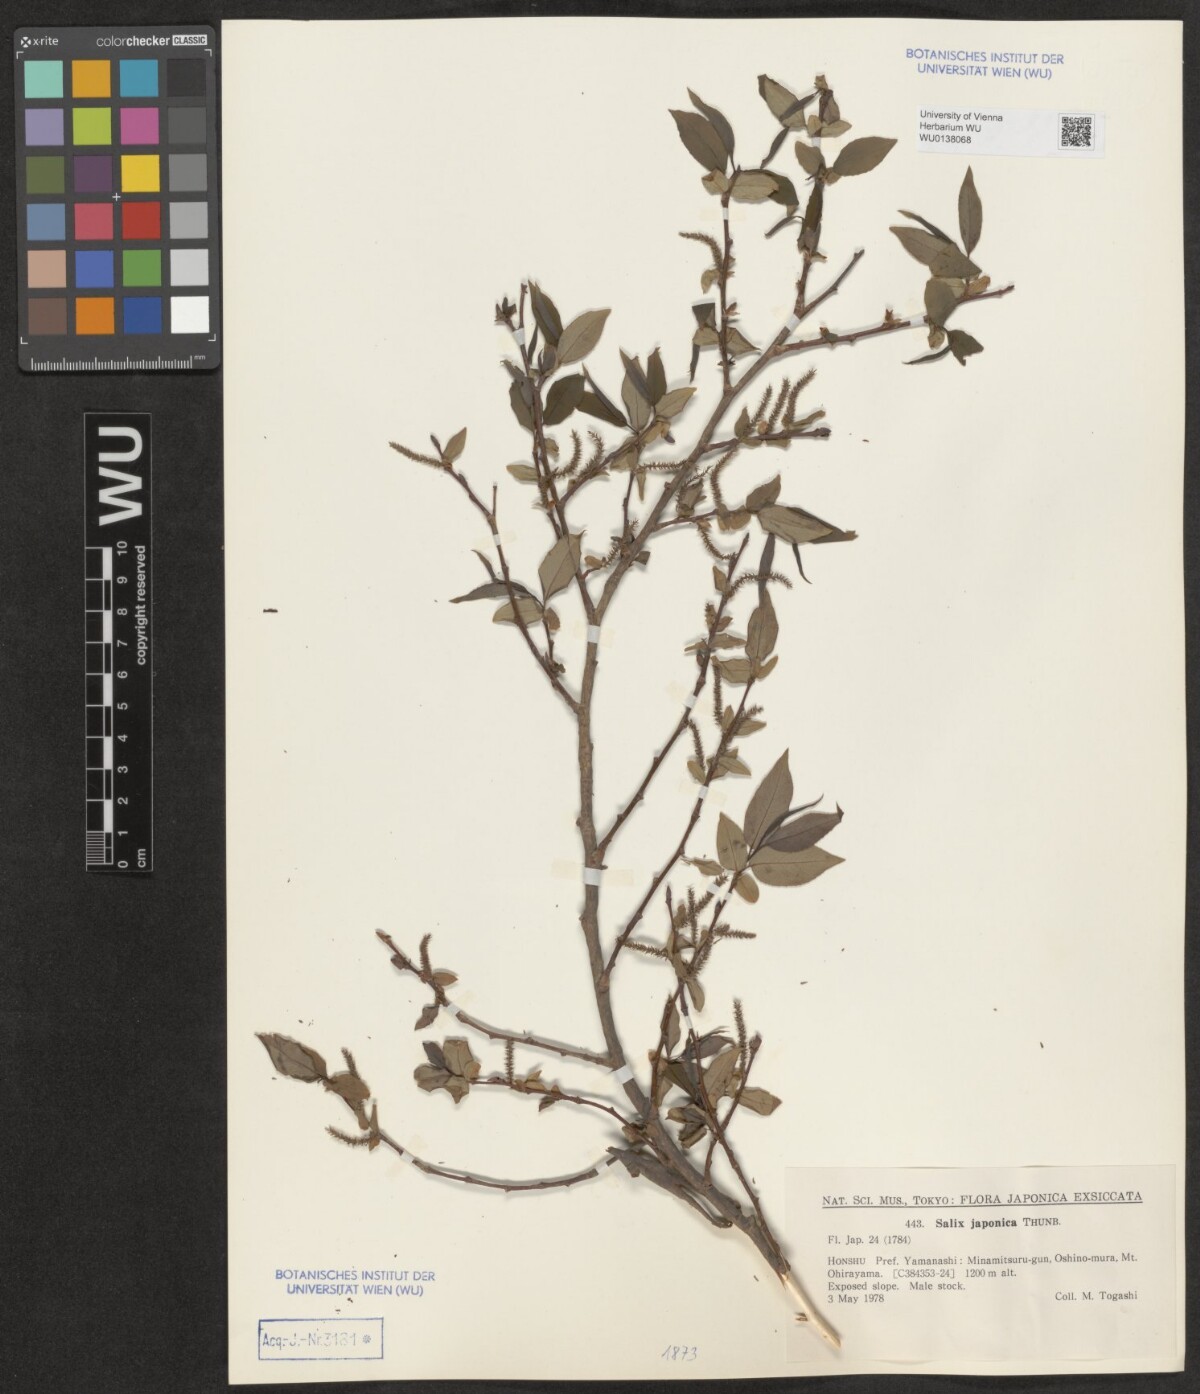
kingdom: Plantae
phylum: Tracheophyta
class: Magnoliopsida
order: Malpighiales
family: Salicaceae
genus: Salix
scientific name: Salix japonica
